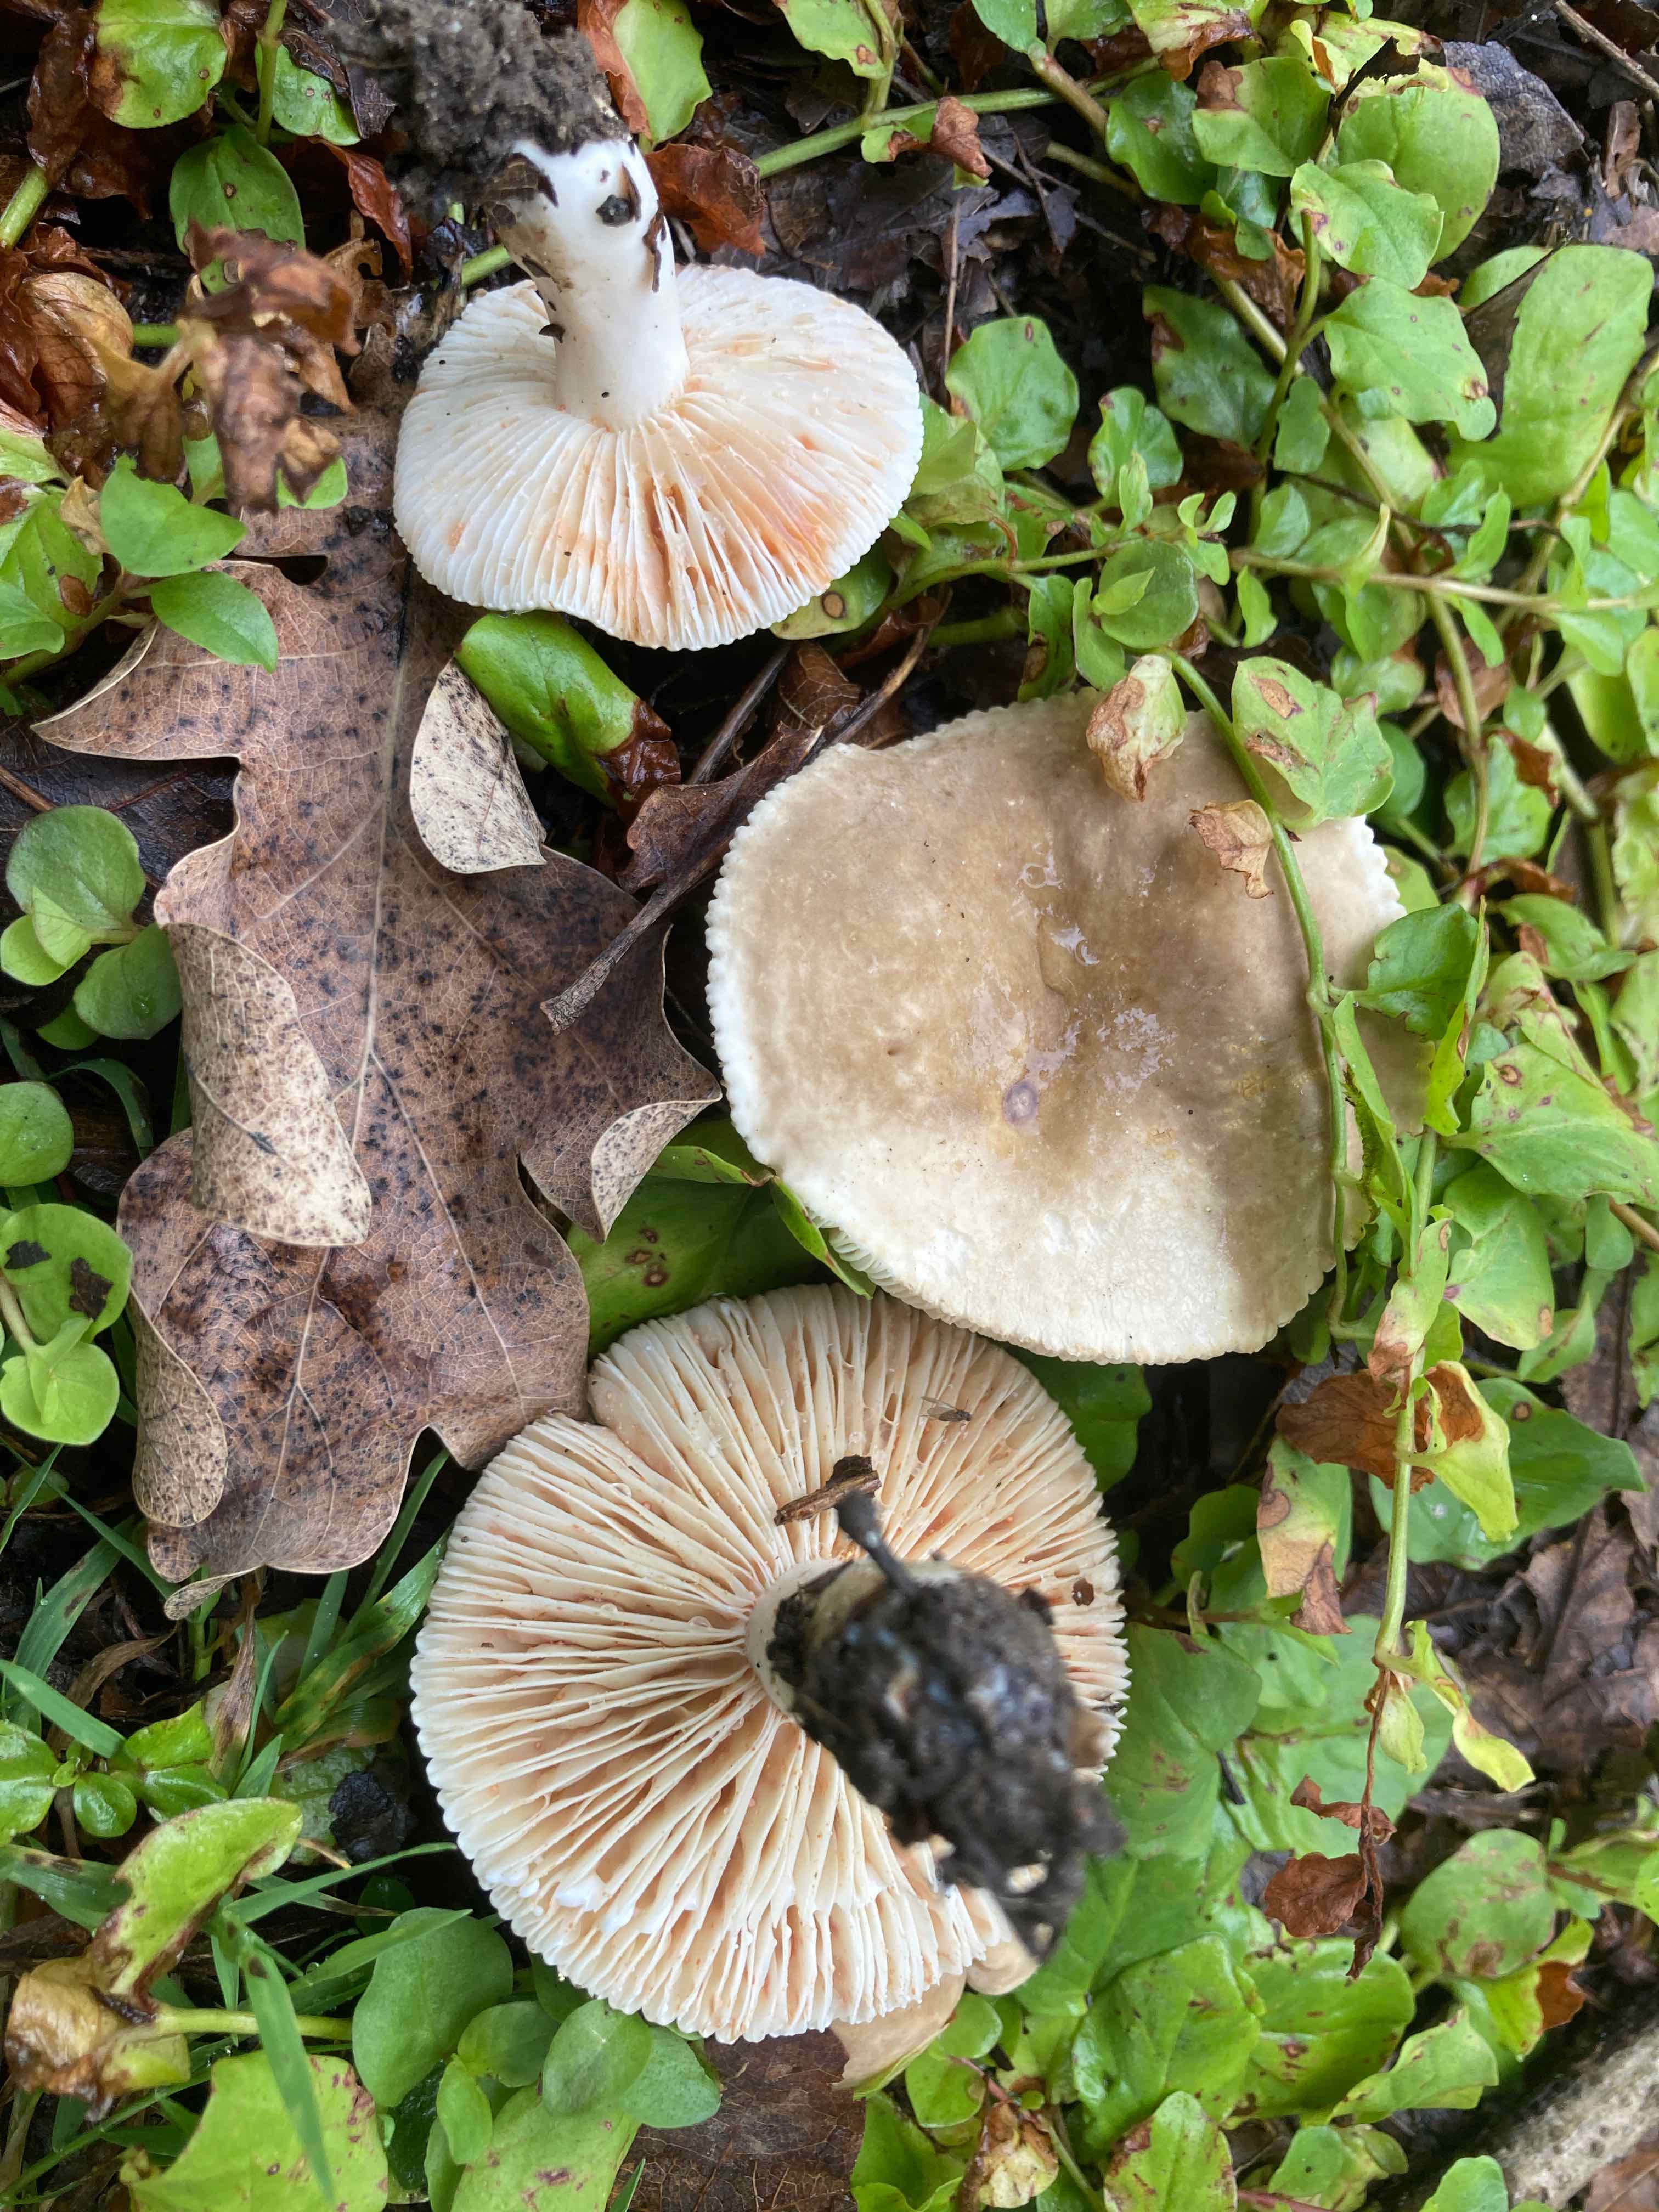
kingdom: Fungi
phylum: Basidiomycota
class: Agaricomycetes
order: Russulales
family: Russulaceae
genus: Lactarius
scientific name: Lactarius azonites
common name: røggrå mælkehat
